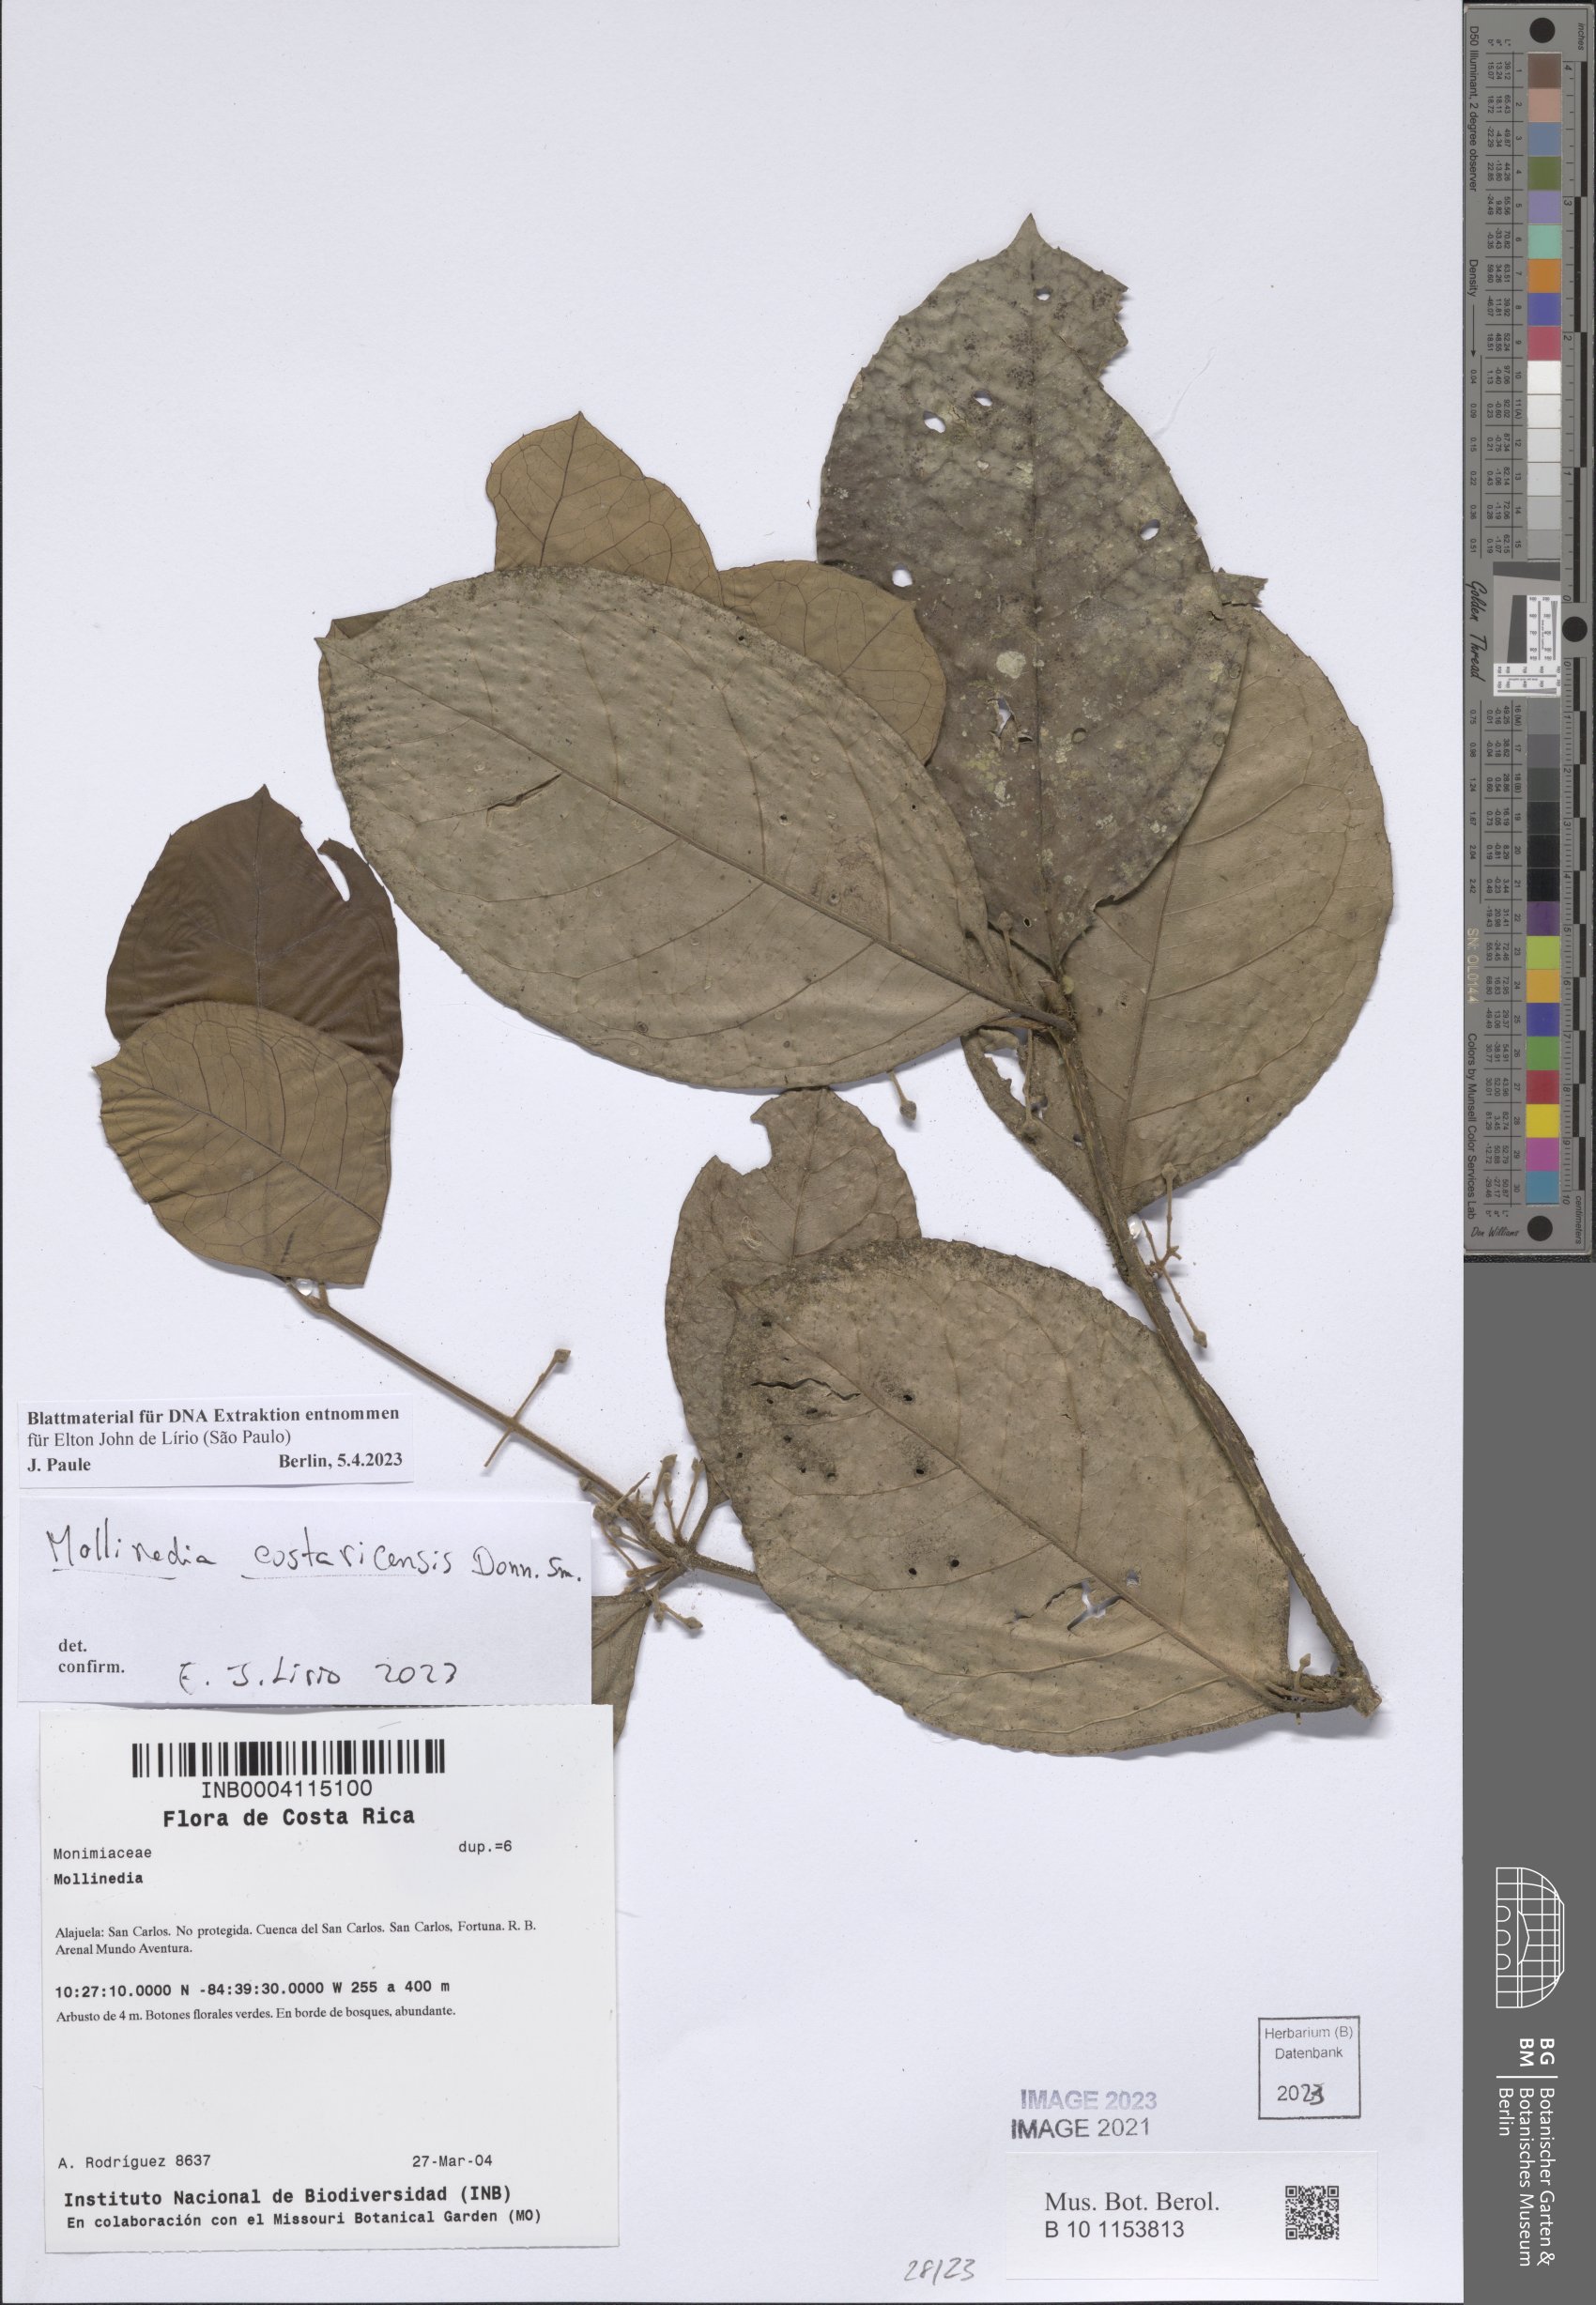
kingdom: Plantae
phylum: Tracheophyta
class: Magnoliopsida
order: Laurales
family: Monimiaceae
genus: Mollinedia
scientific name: Mollinedia costaricensis
